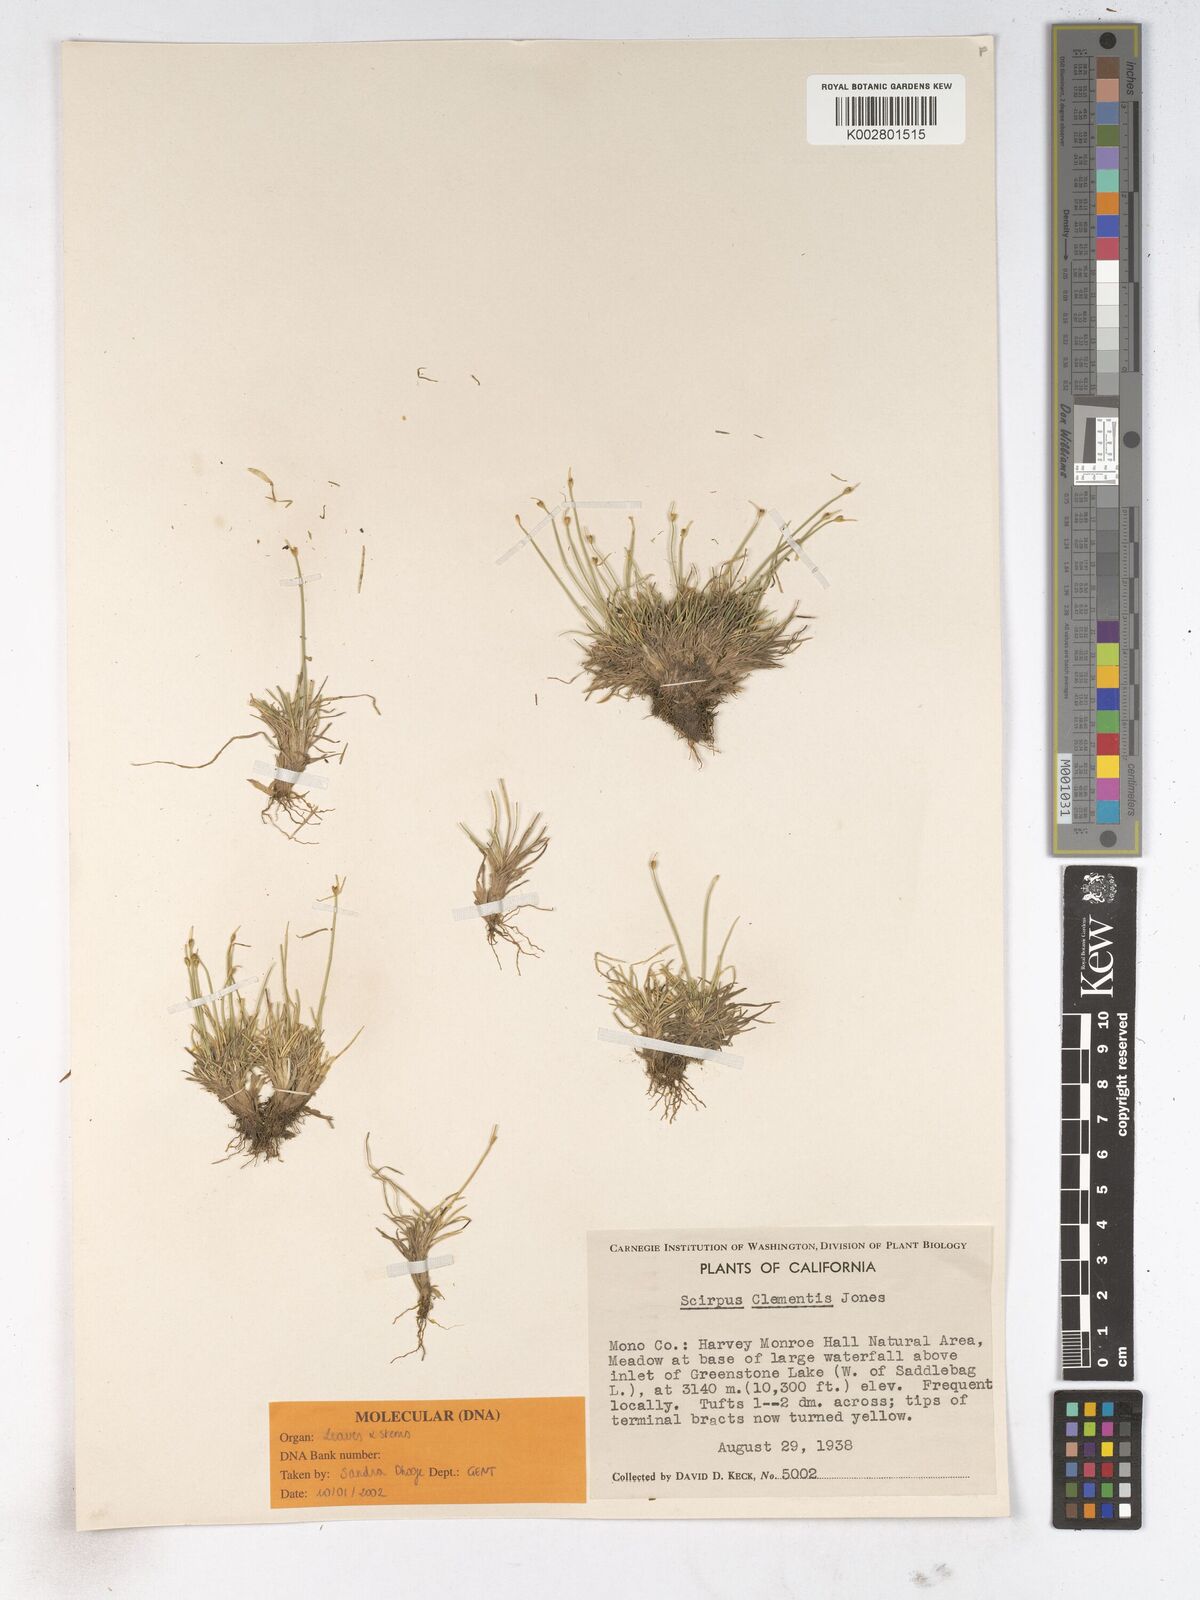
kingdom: Plantae
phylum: Tracheophyta
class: Liliopsida
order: Poales
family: Cyperaceae
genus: Trichophorum
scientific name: Trichophorum clementis
